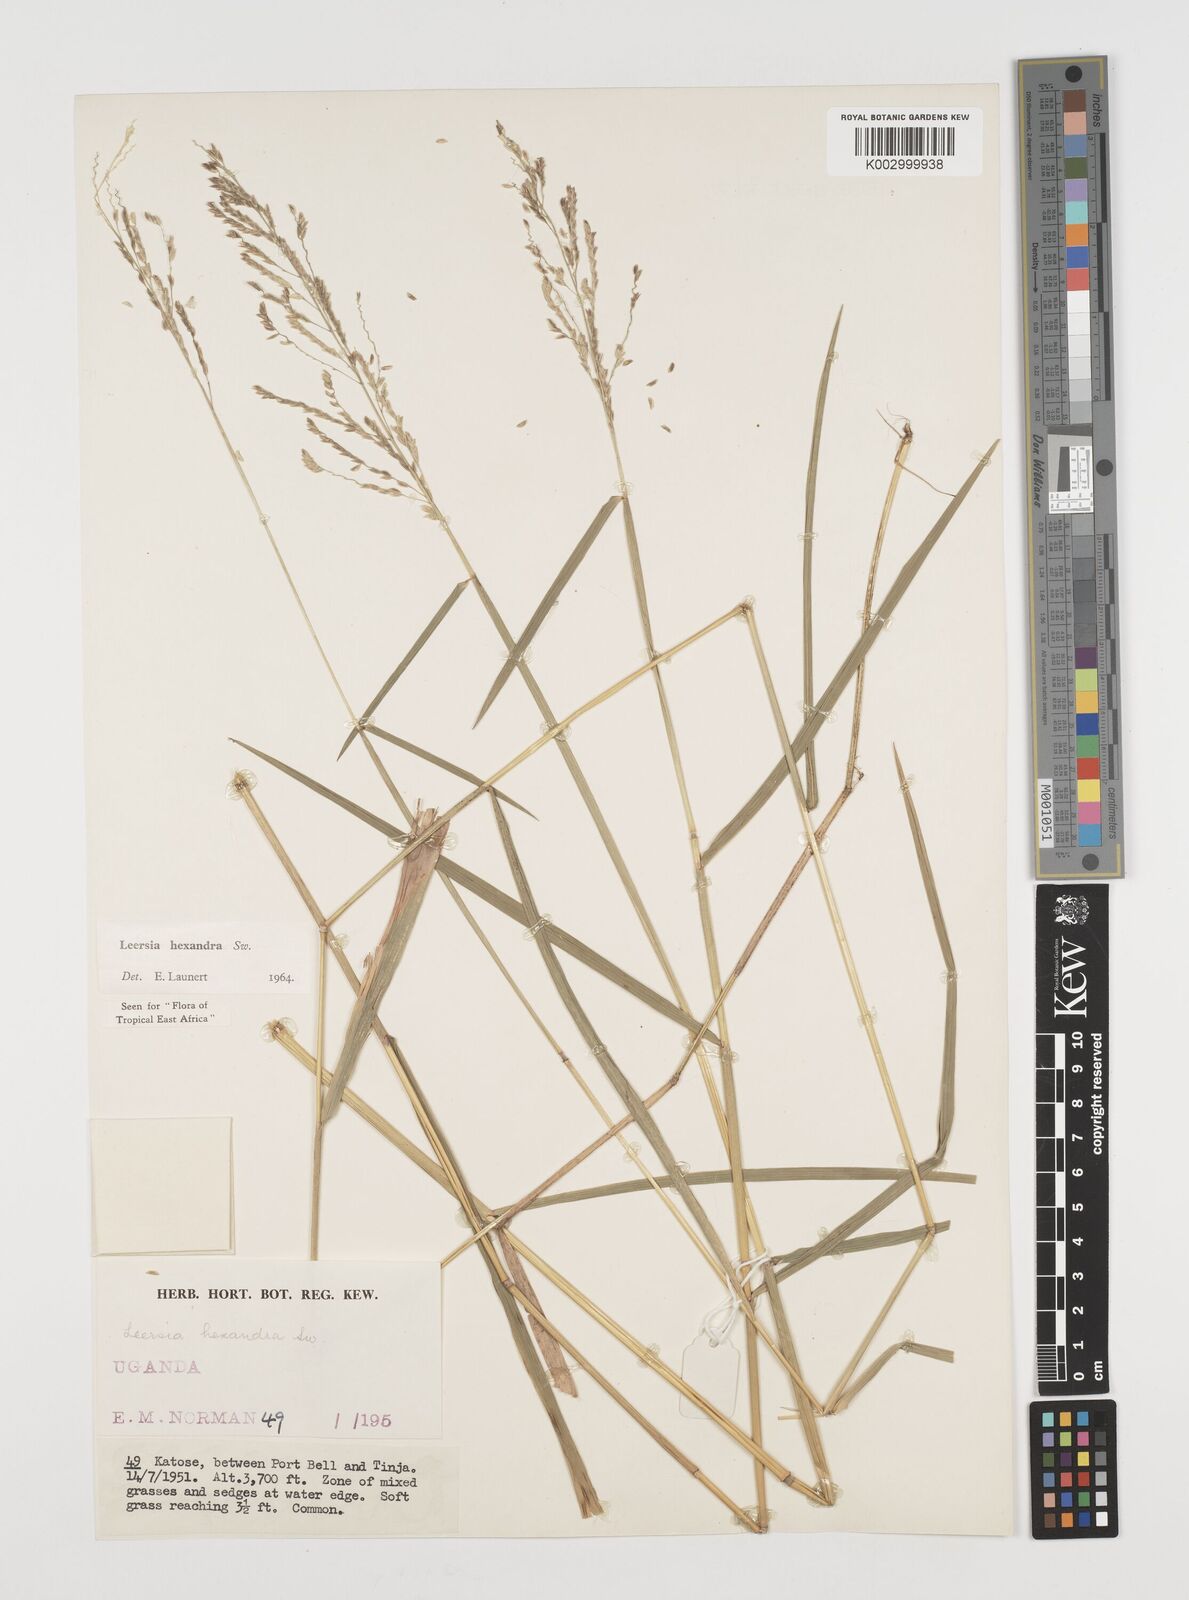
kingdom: Plantae
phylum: Tracheophyta
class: Liliopsida
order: Poales
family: Poaceae
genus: Leersia
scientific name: Leersia hexandra
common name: Southern cut grass
